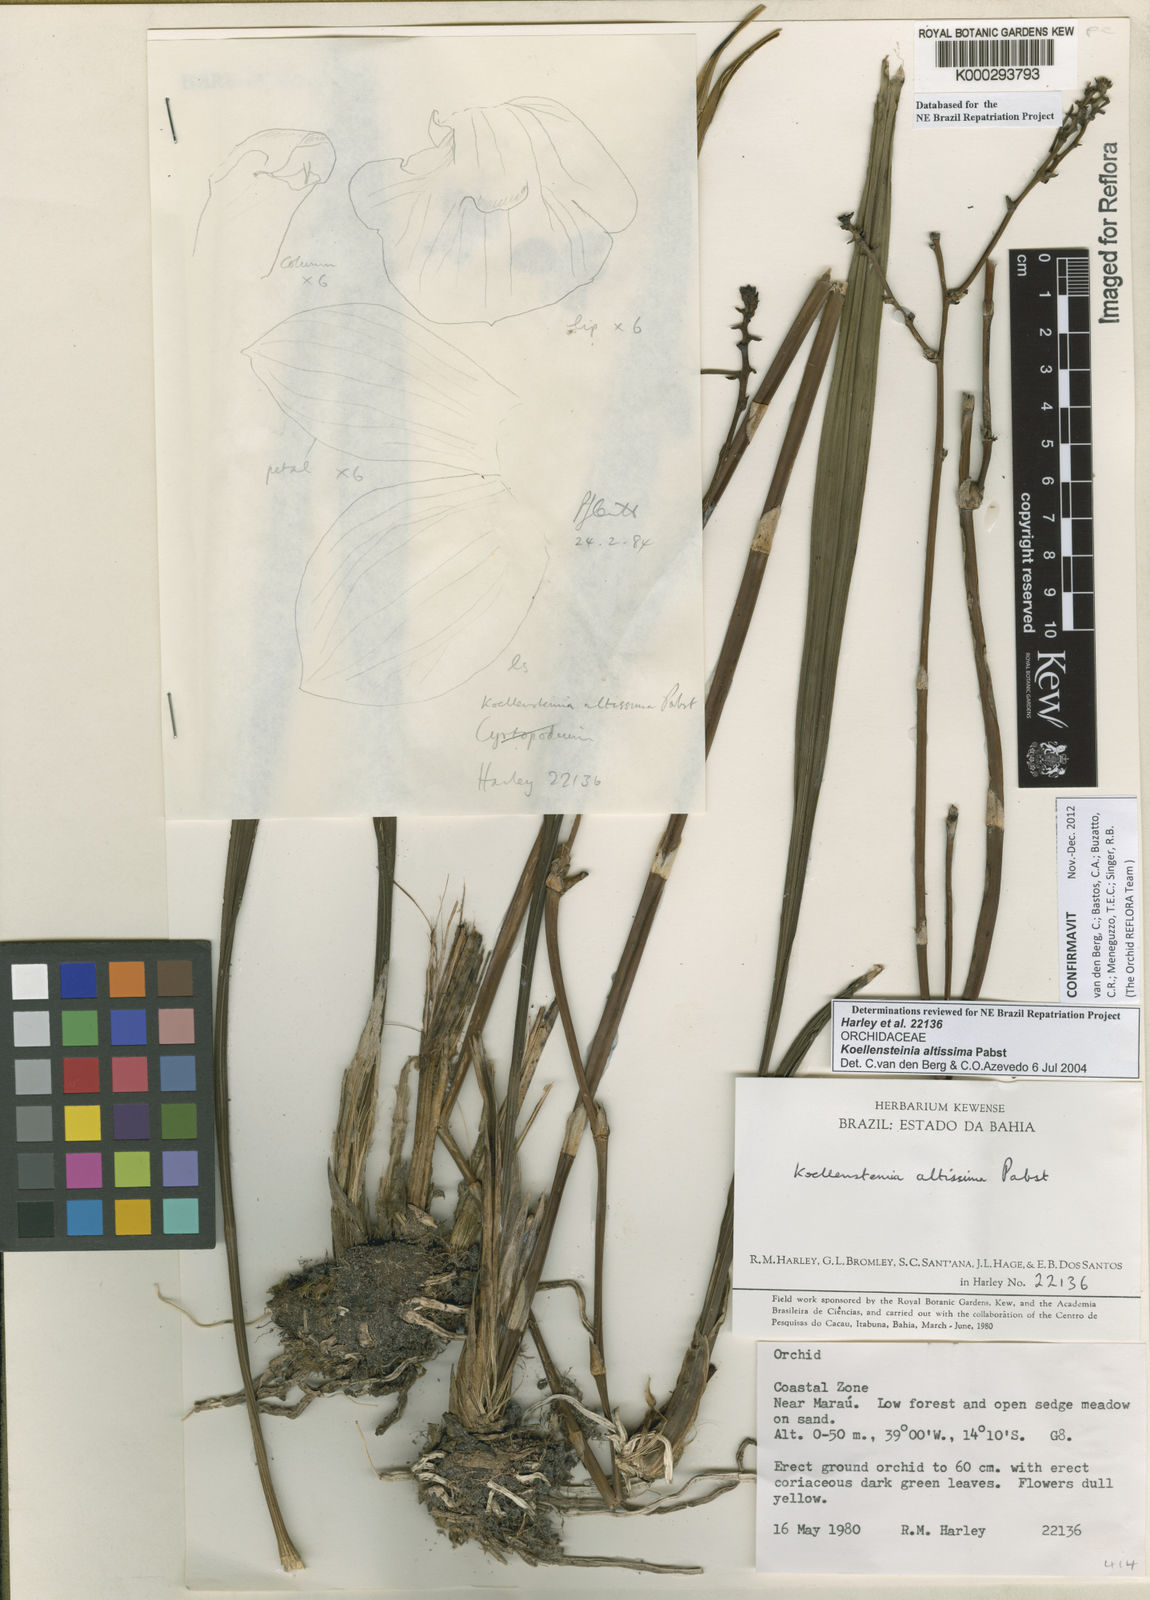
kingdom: Plantae
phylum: Tracheophyta
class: Liliopsida
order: Asparagales
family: Orchidaceae
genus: Koellensteinia
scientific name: Koellensteinia florida
